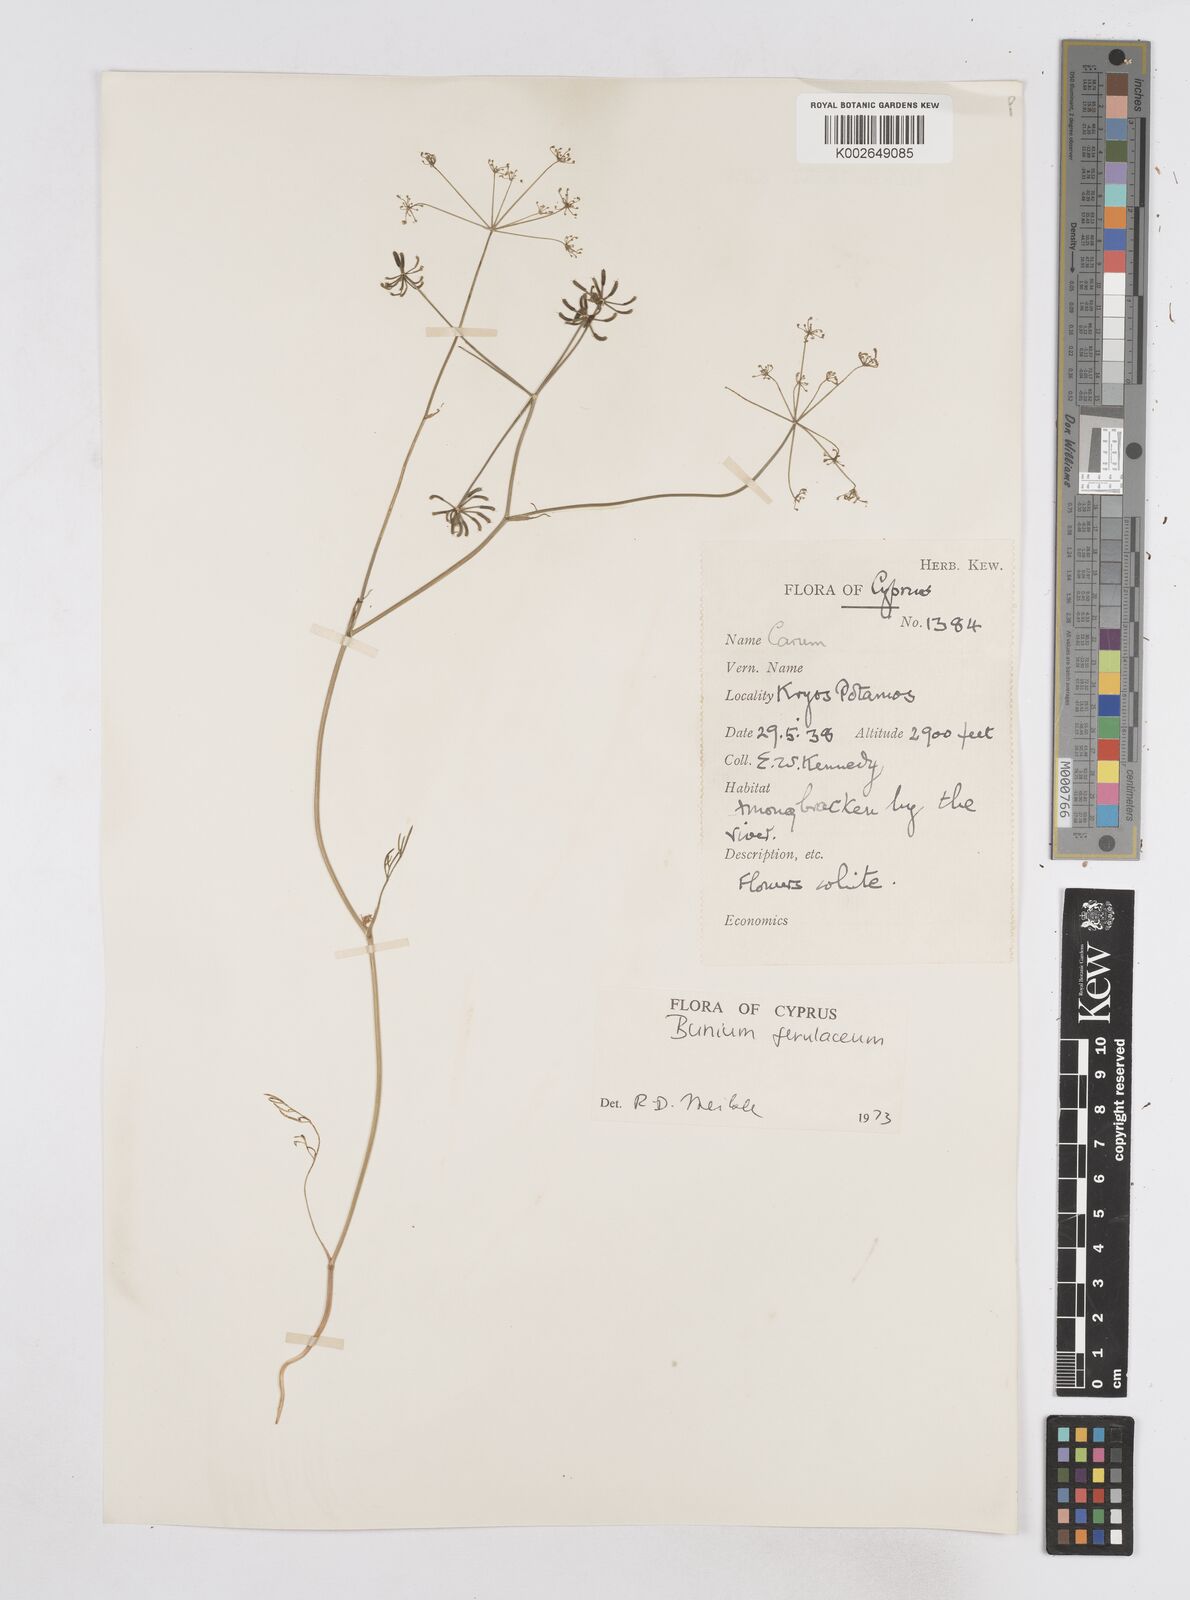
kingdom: Plantae
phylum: Tracheophyta
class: Magnoliopsida
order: Apiales
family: Apiaceae
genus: Bunium
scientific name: Bunium ferulaceum
